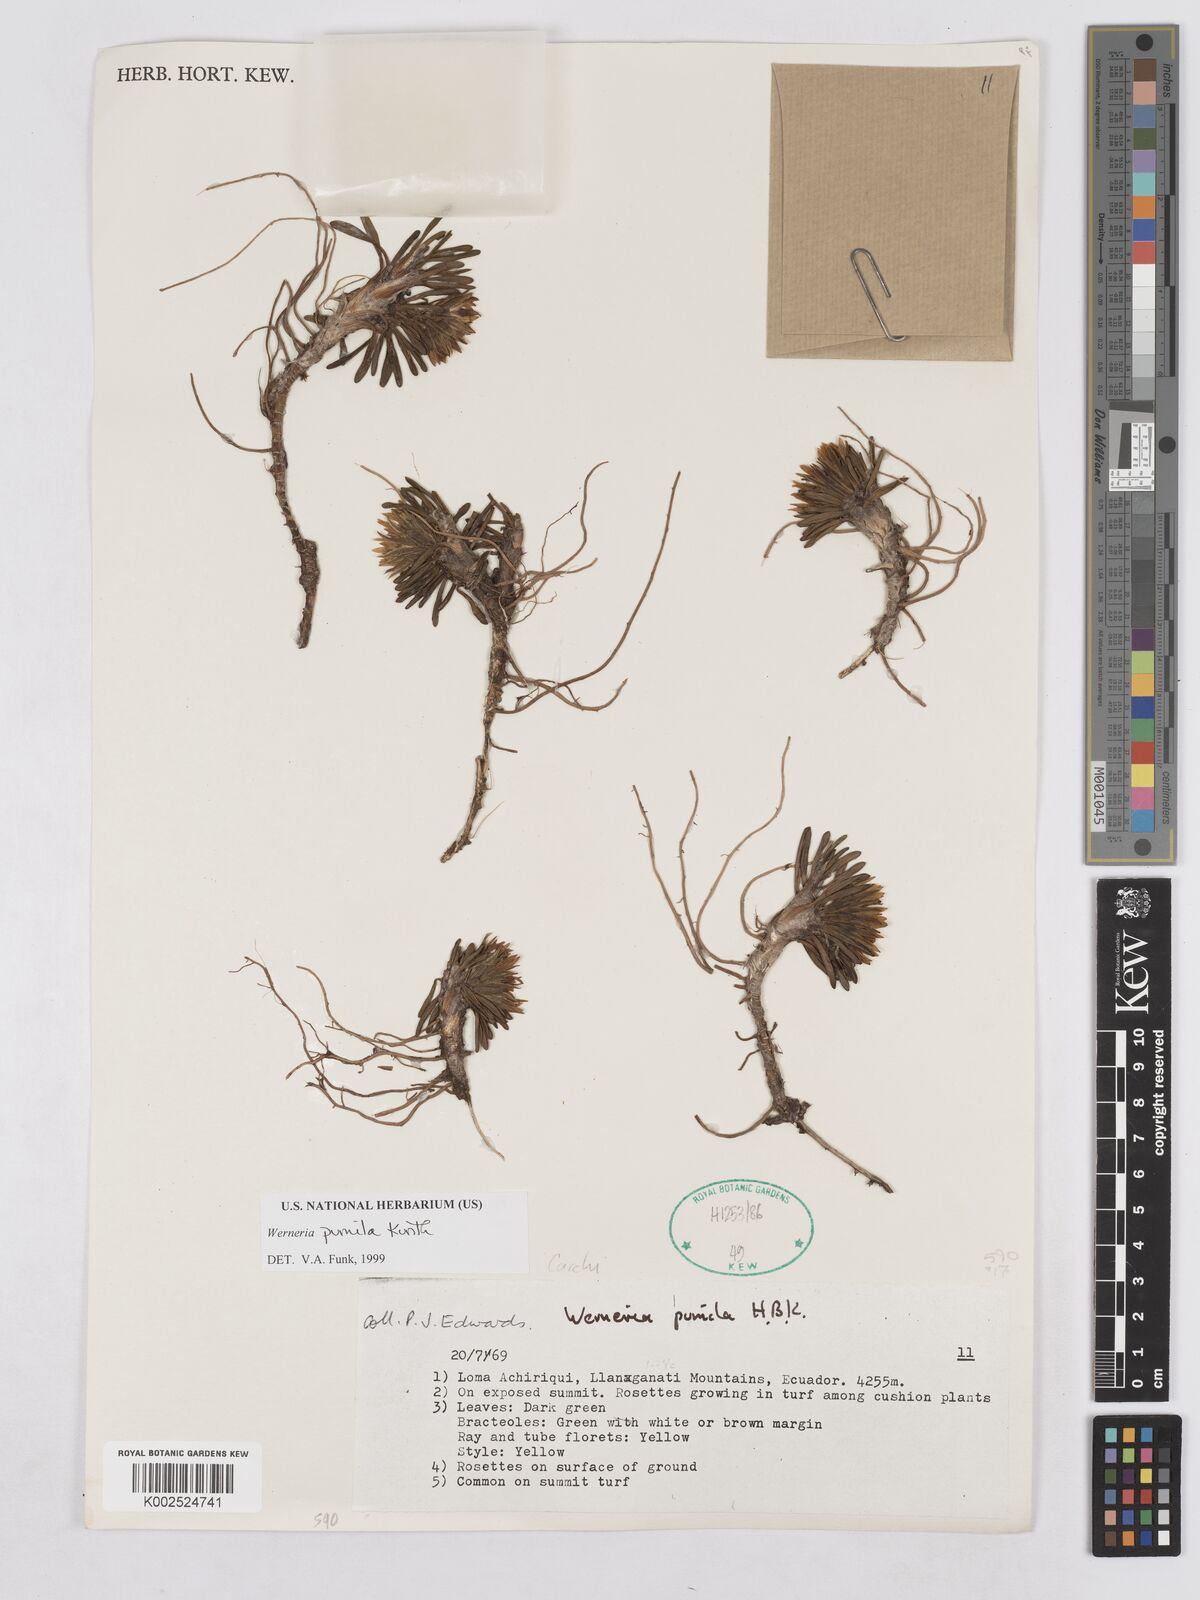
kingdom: Plantae
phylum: Tracheophyta
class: Magnoliopsida
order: Asterales
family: Asteraceae
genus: Rockhausenia
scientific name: Rockhausenia pumila
